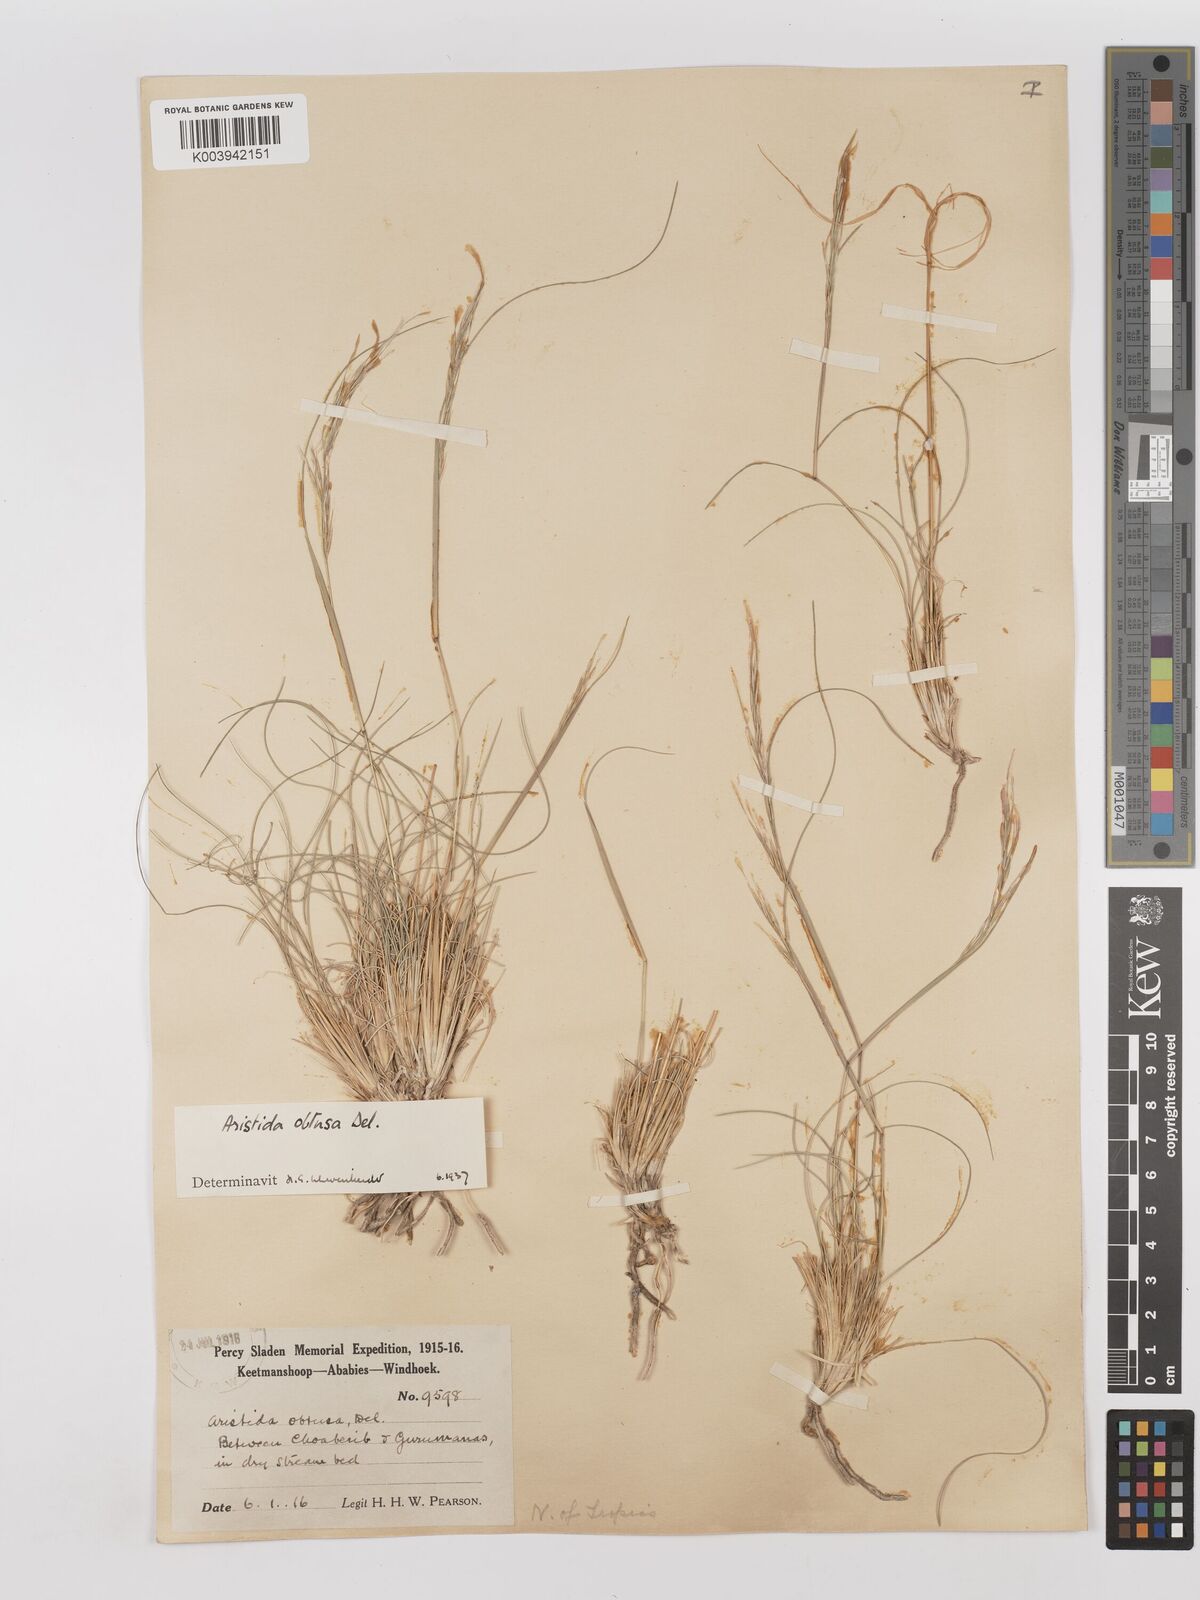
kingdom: Plantae
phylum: Tracheophyta
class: Liliopsida
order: Poales
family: Poaceae
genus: Stipagrostis
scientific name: Stipagrostis obtusa
